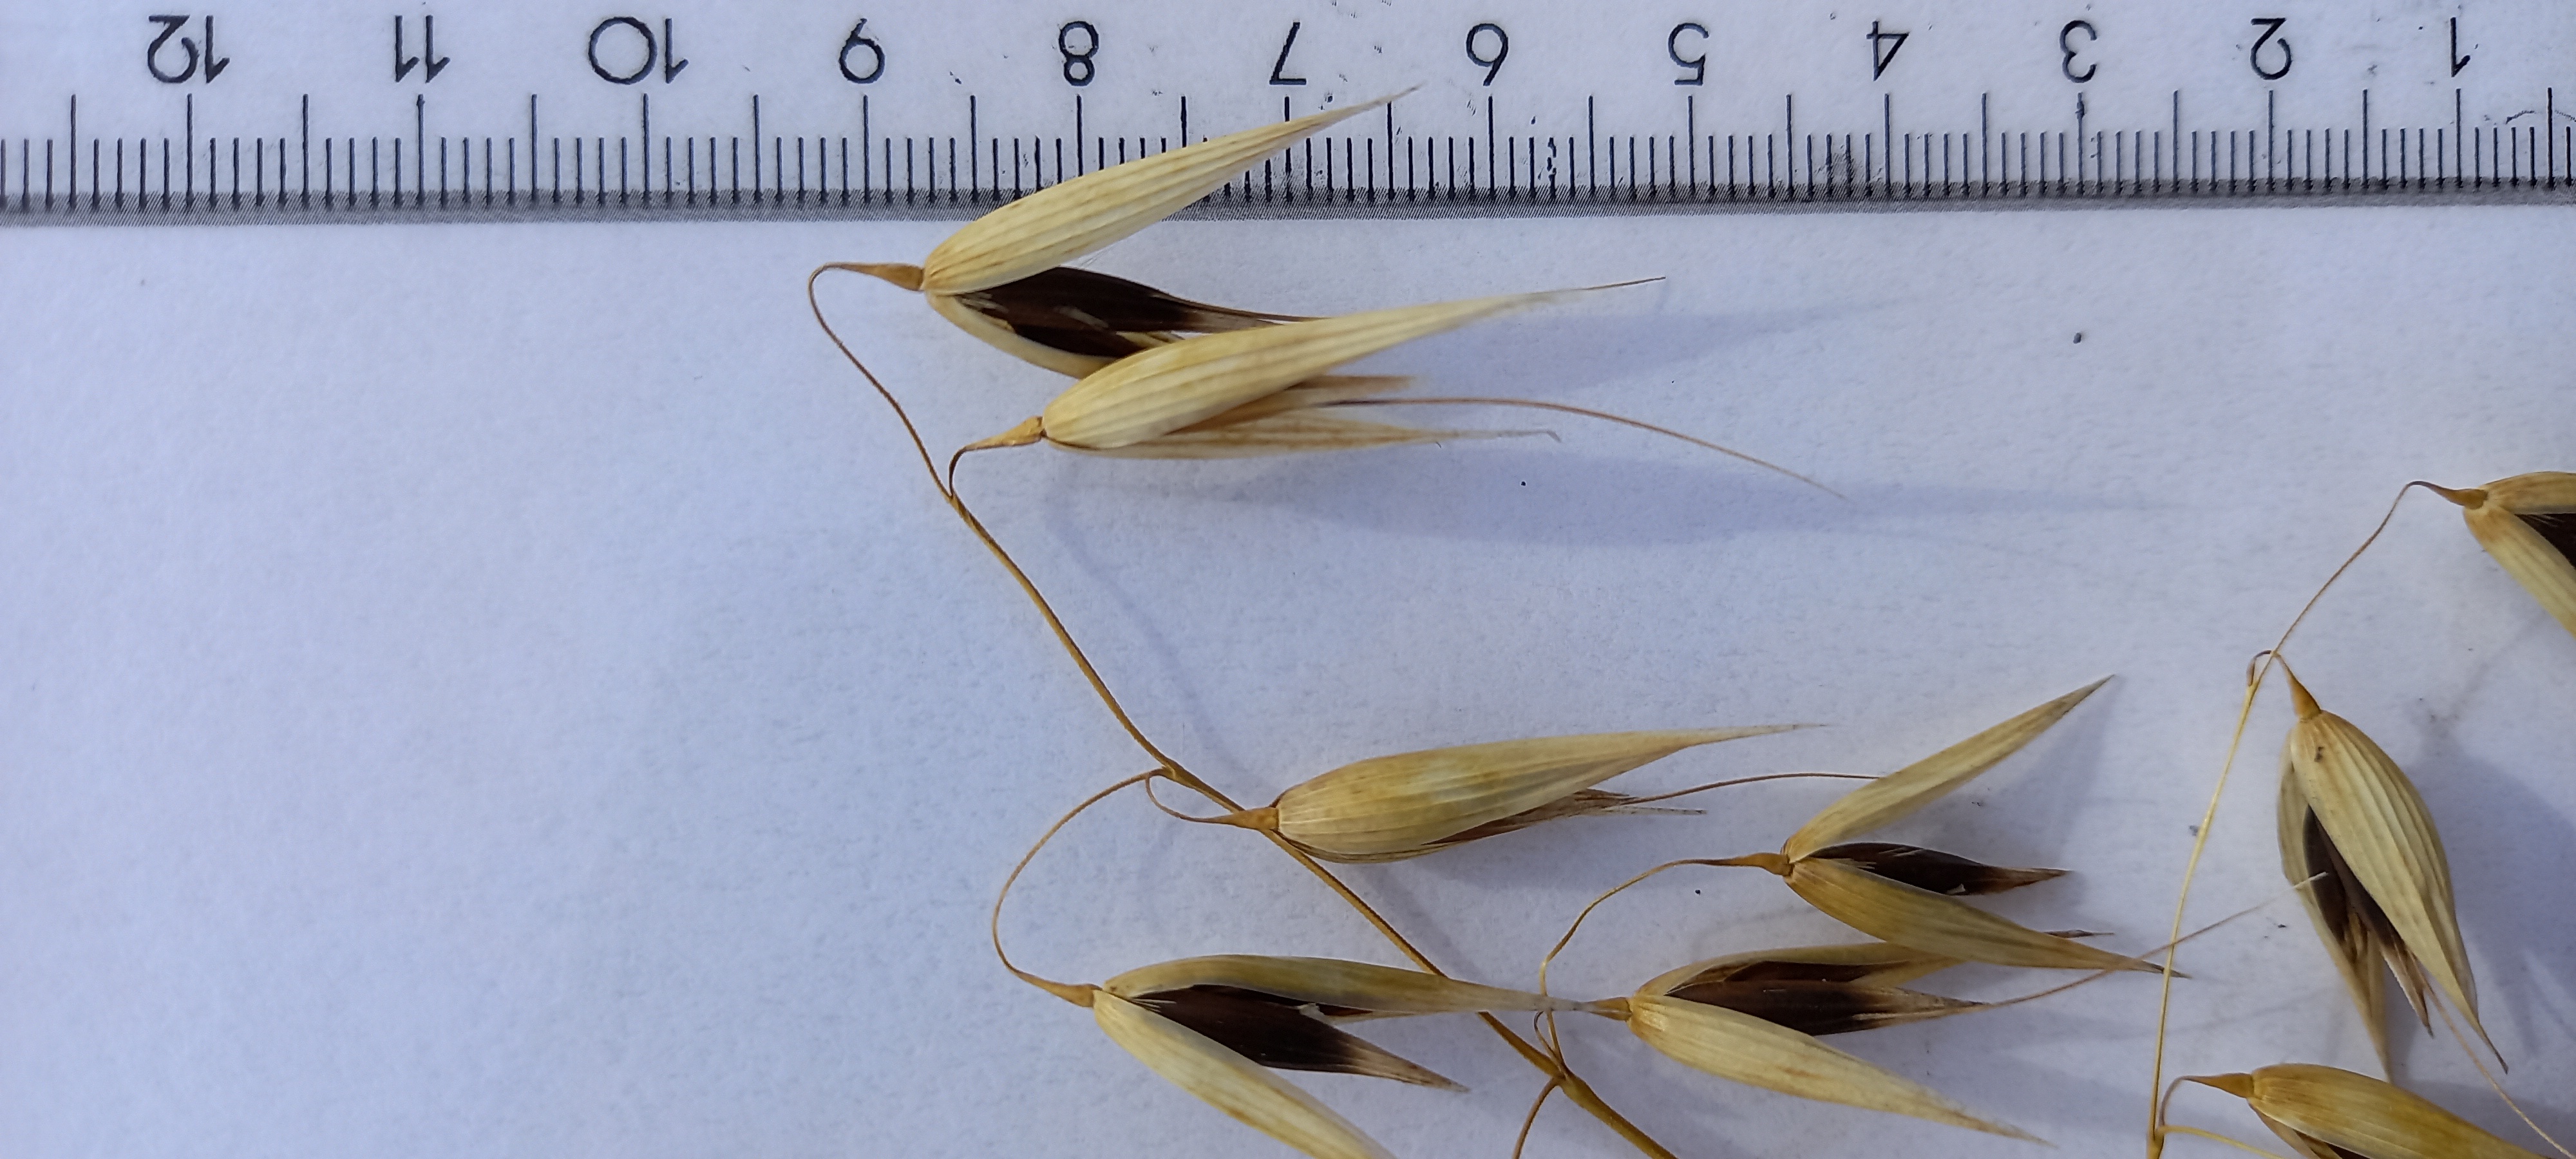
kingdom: Plantae
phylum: Tracheophyta
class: Liliopsida
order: Poales
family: Poaceae
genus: Avena
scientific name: Avena sativa
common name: Oat
